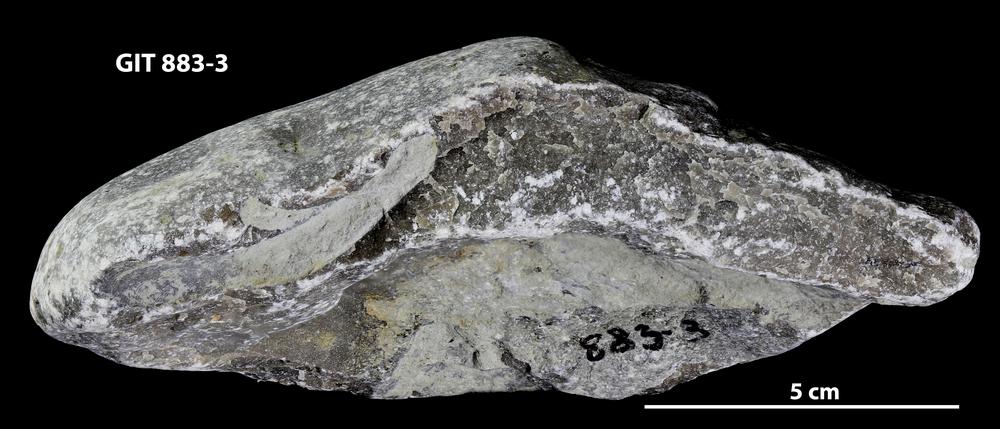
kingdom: Animalia
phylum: Porifera
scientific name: Porifera
